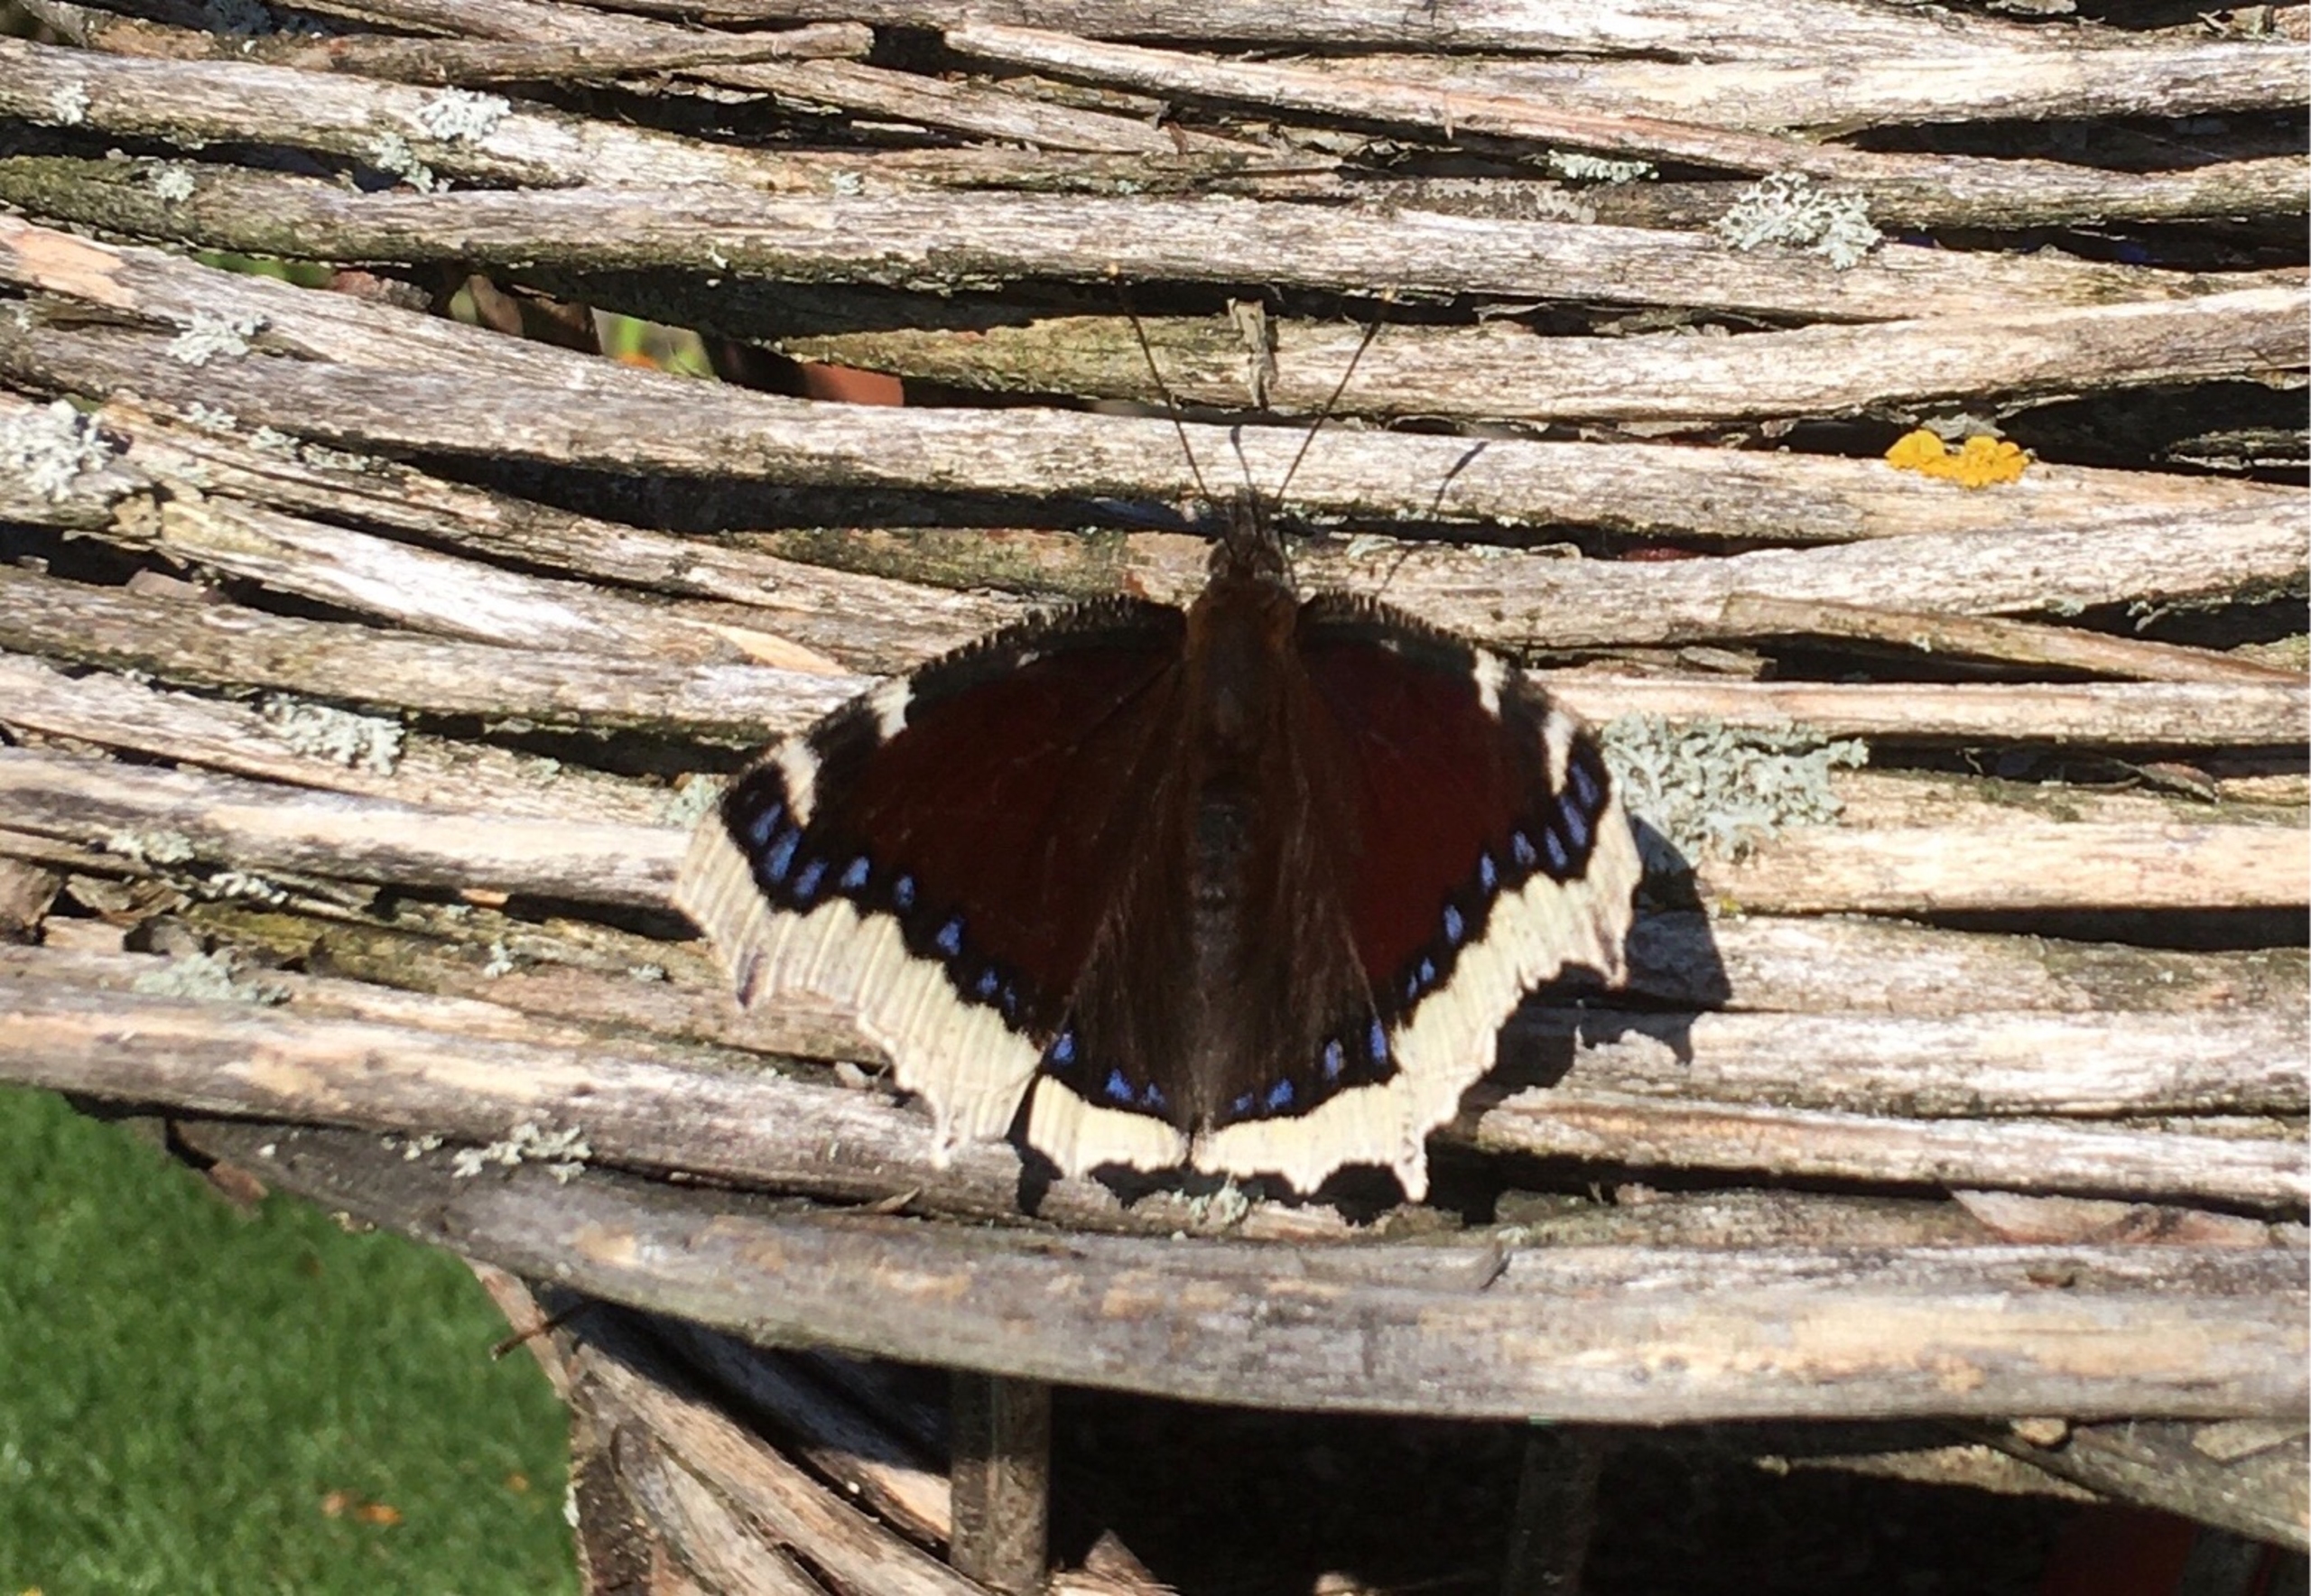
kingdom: Animalia
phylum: Arthropoda
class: Insecta
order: Lepidoptera
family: Nymphalidae
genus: Nymphalis
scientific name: Nymphalis antiopa
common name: Sørgekåbe
